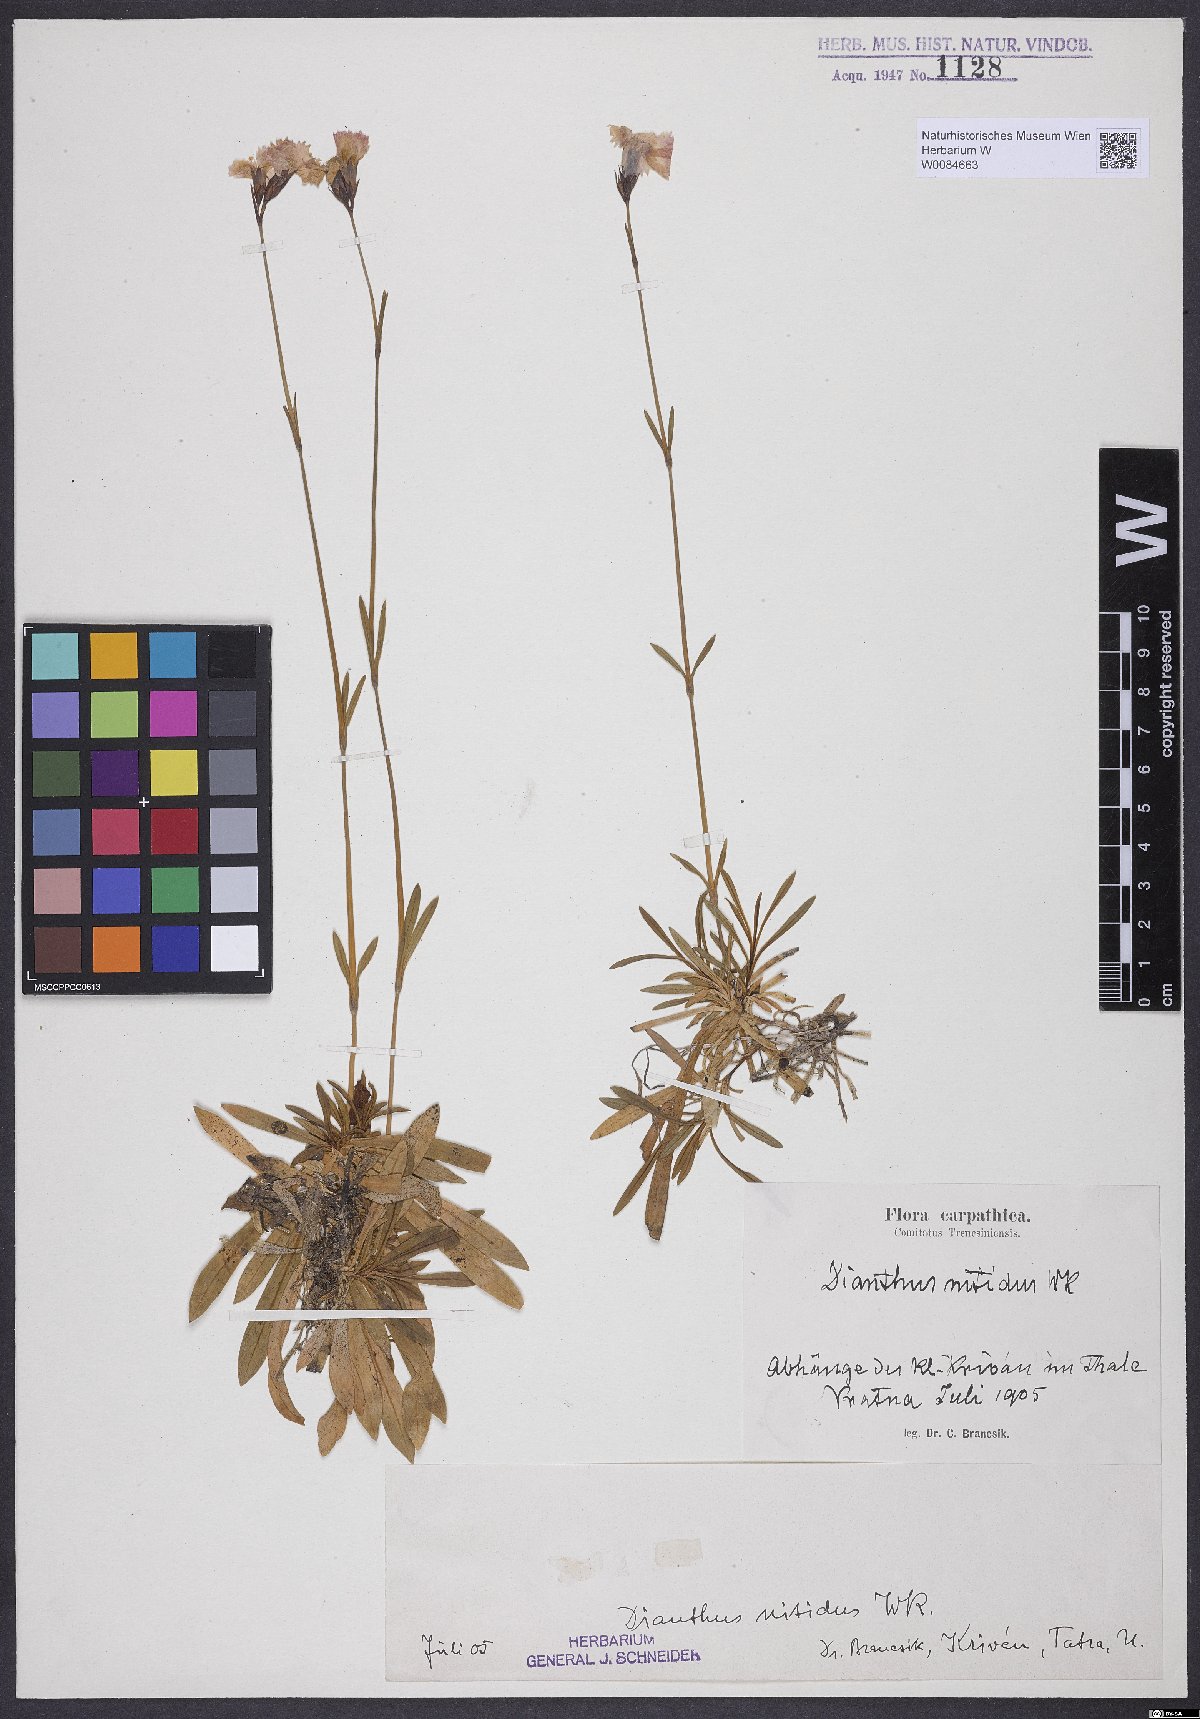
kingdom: Plantae
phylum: Tracheophyta
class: Magnoliopsida
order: Caryophyllales
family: Caryophyllaceae
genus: Dianthus
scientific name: Dianthus nitidus
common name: Carpathian glossy pink
